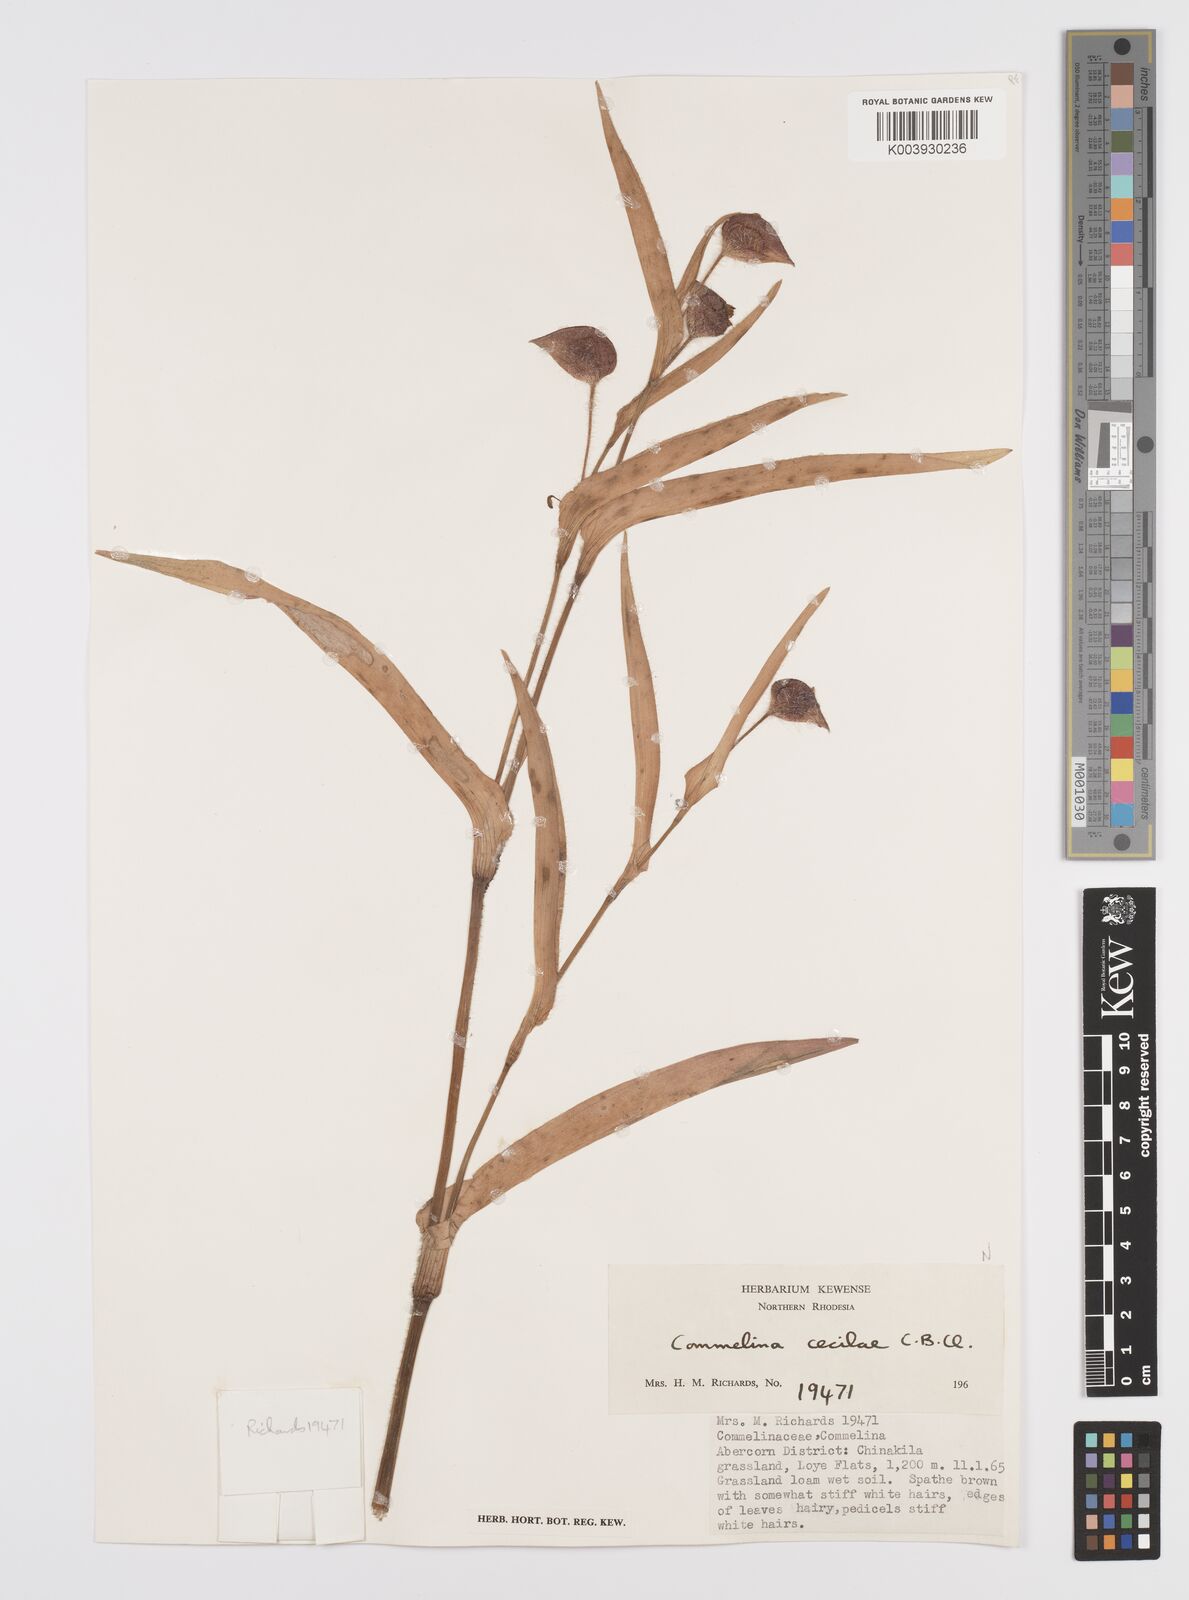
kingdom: Plantae
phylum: Tracheophyta
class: Liliopsida
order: Commelinales
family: Commelinaceae
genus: Commelina
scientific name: Commelina schweinfurthii
